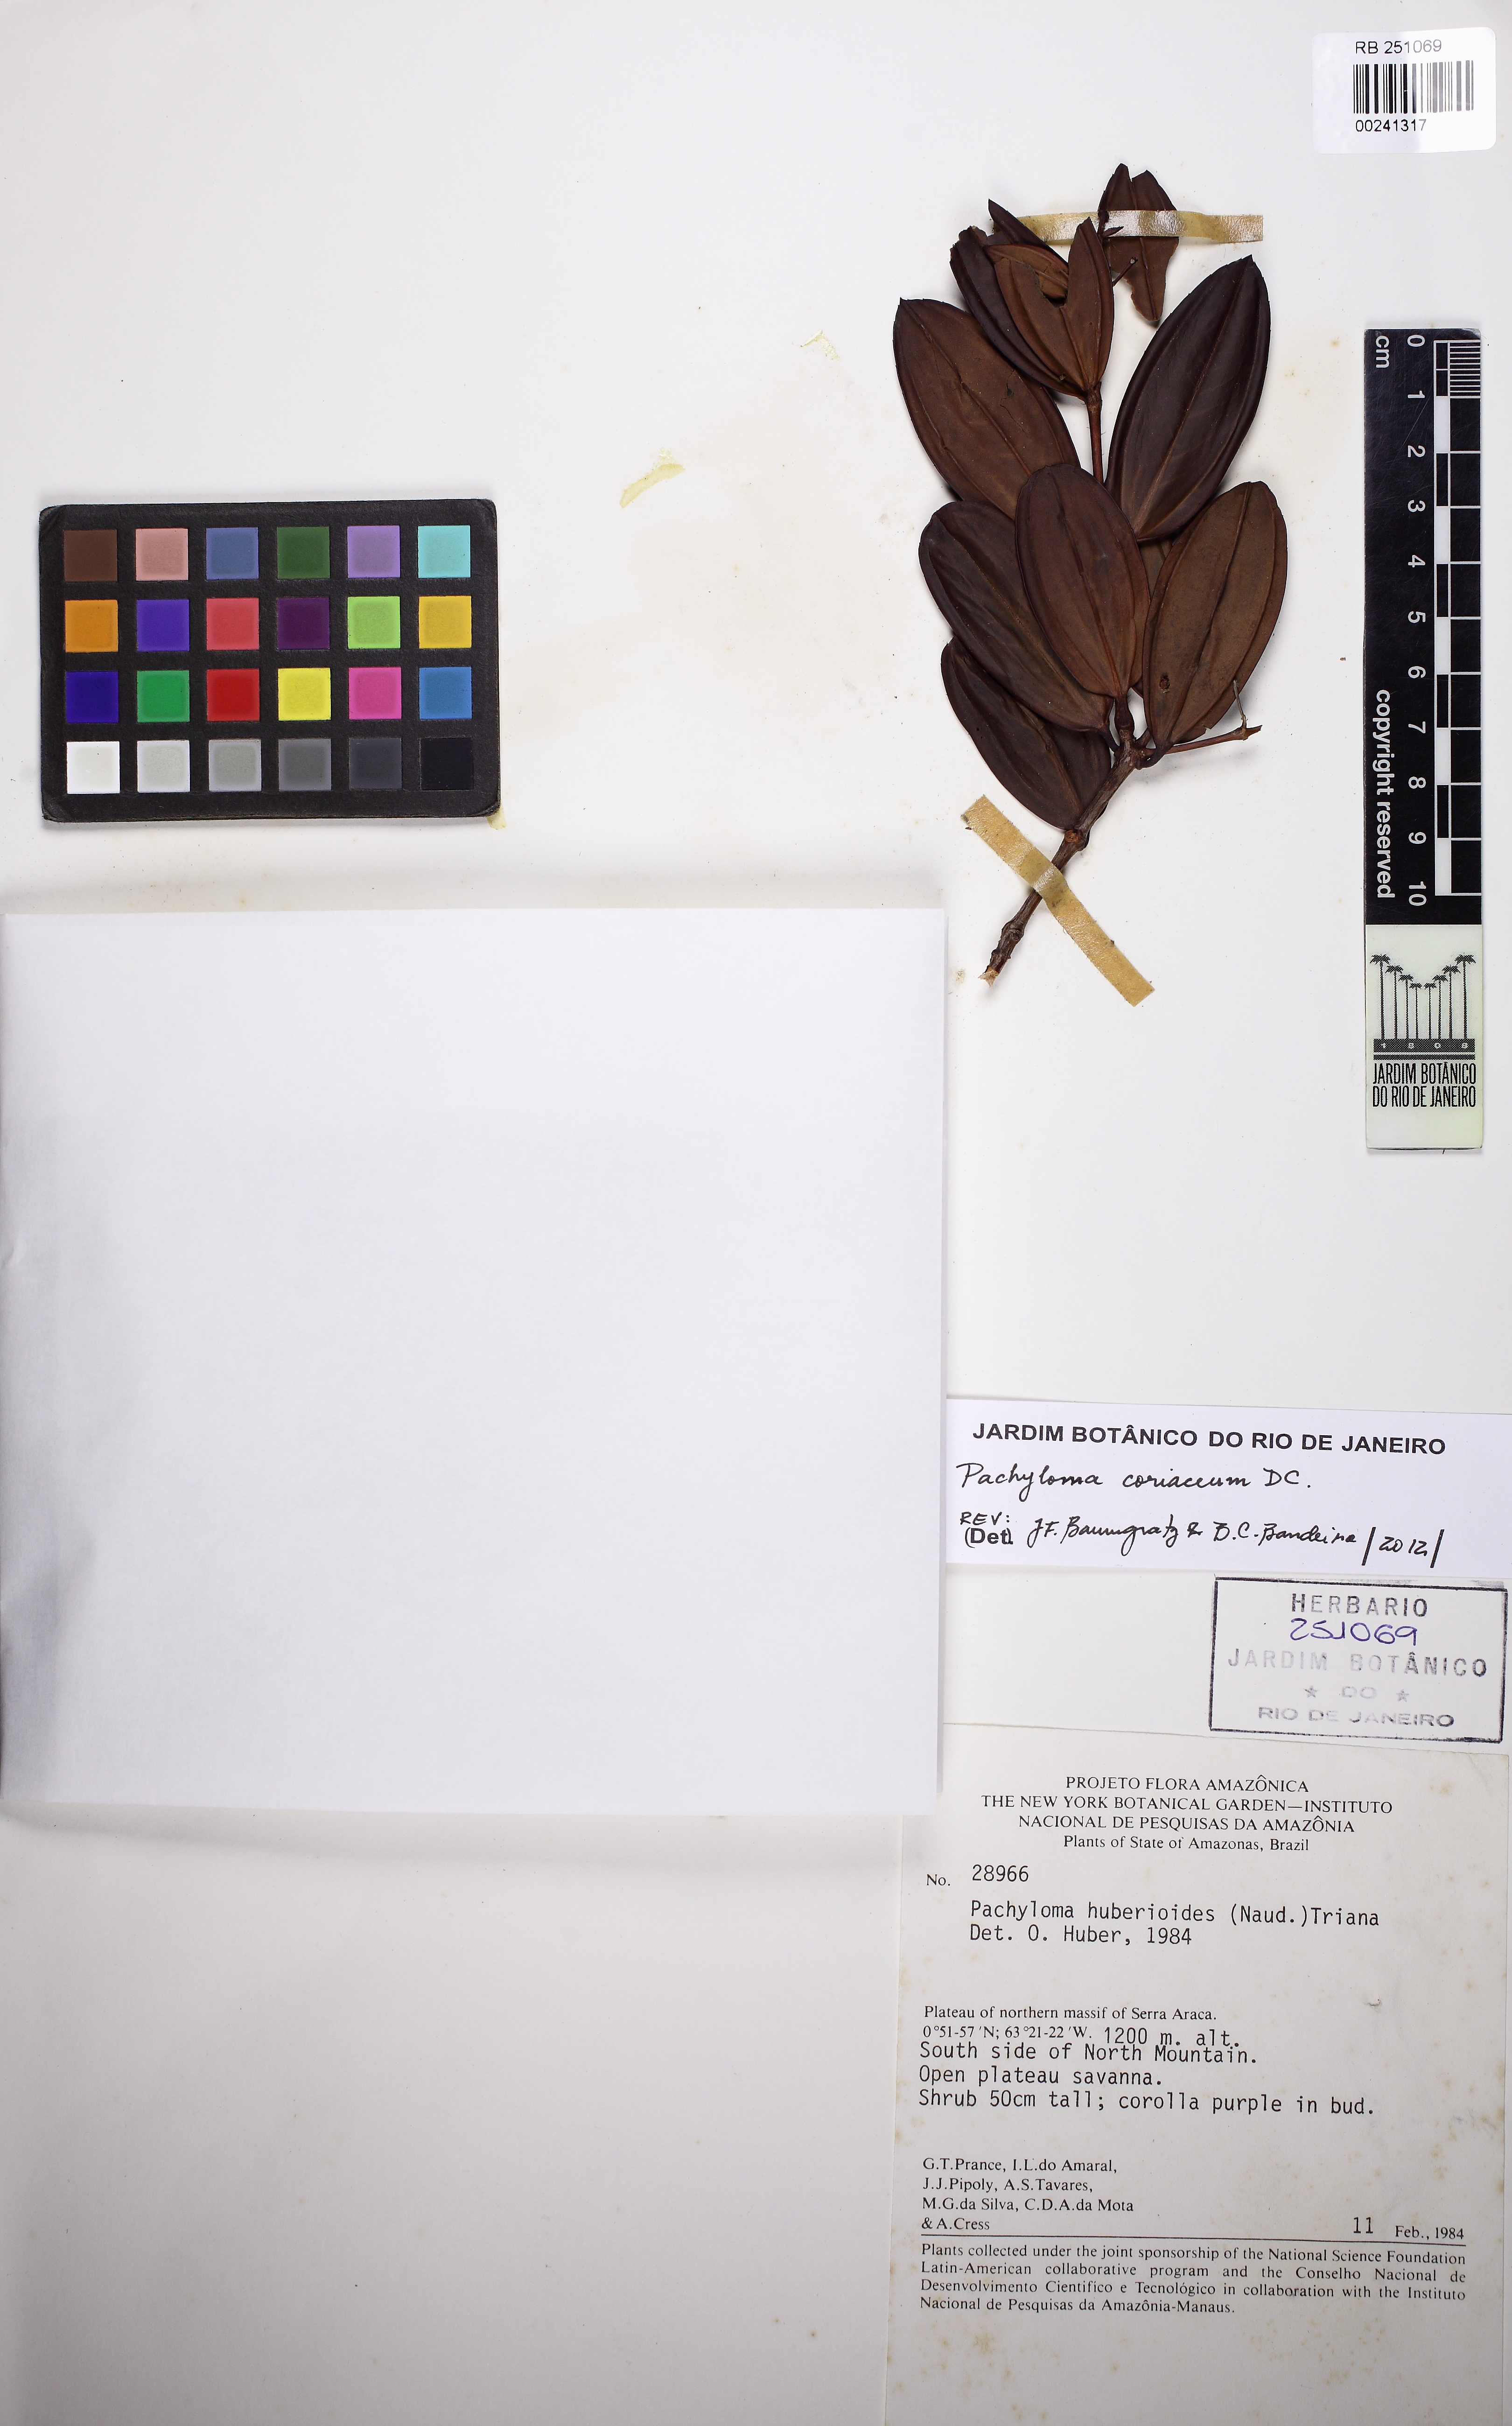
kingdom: Plantae
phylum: Tracheophyta
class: Magnoliopsida
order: Myrtales
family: Melastomataceae
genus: Pachyloma
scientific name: Pachyloma coriaceum
